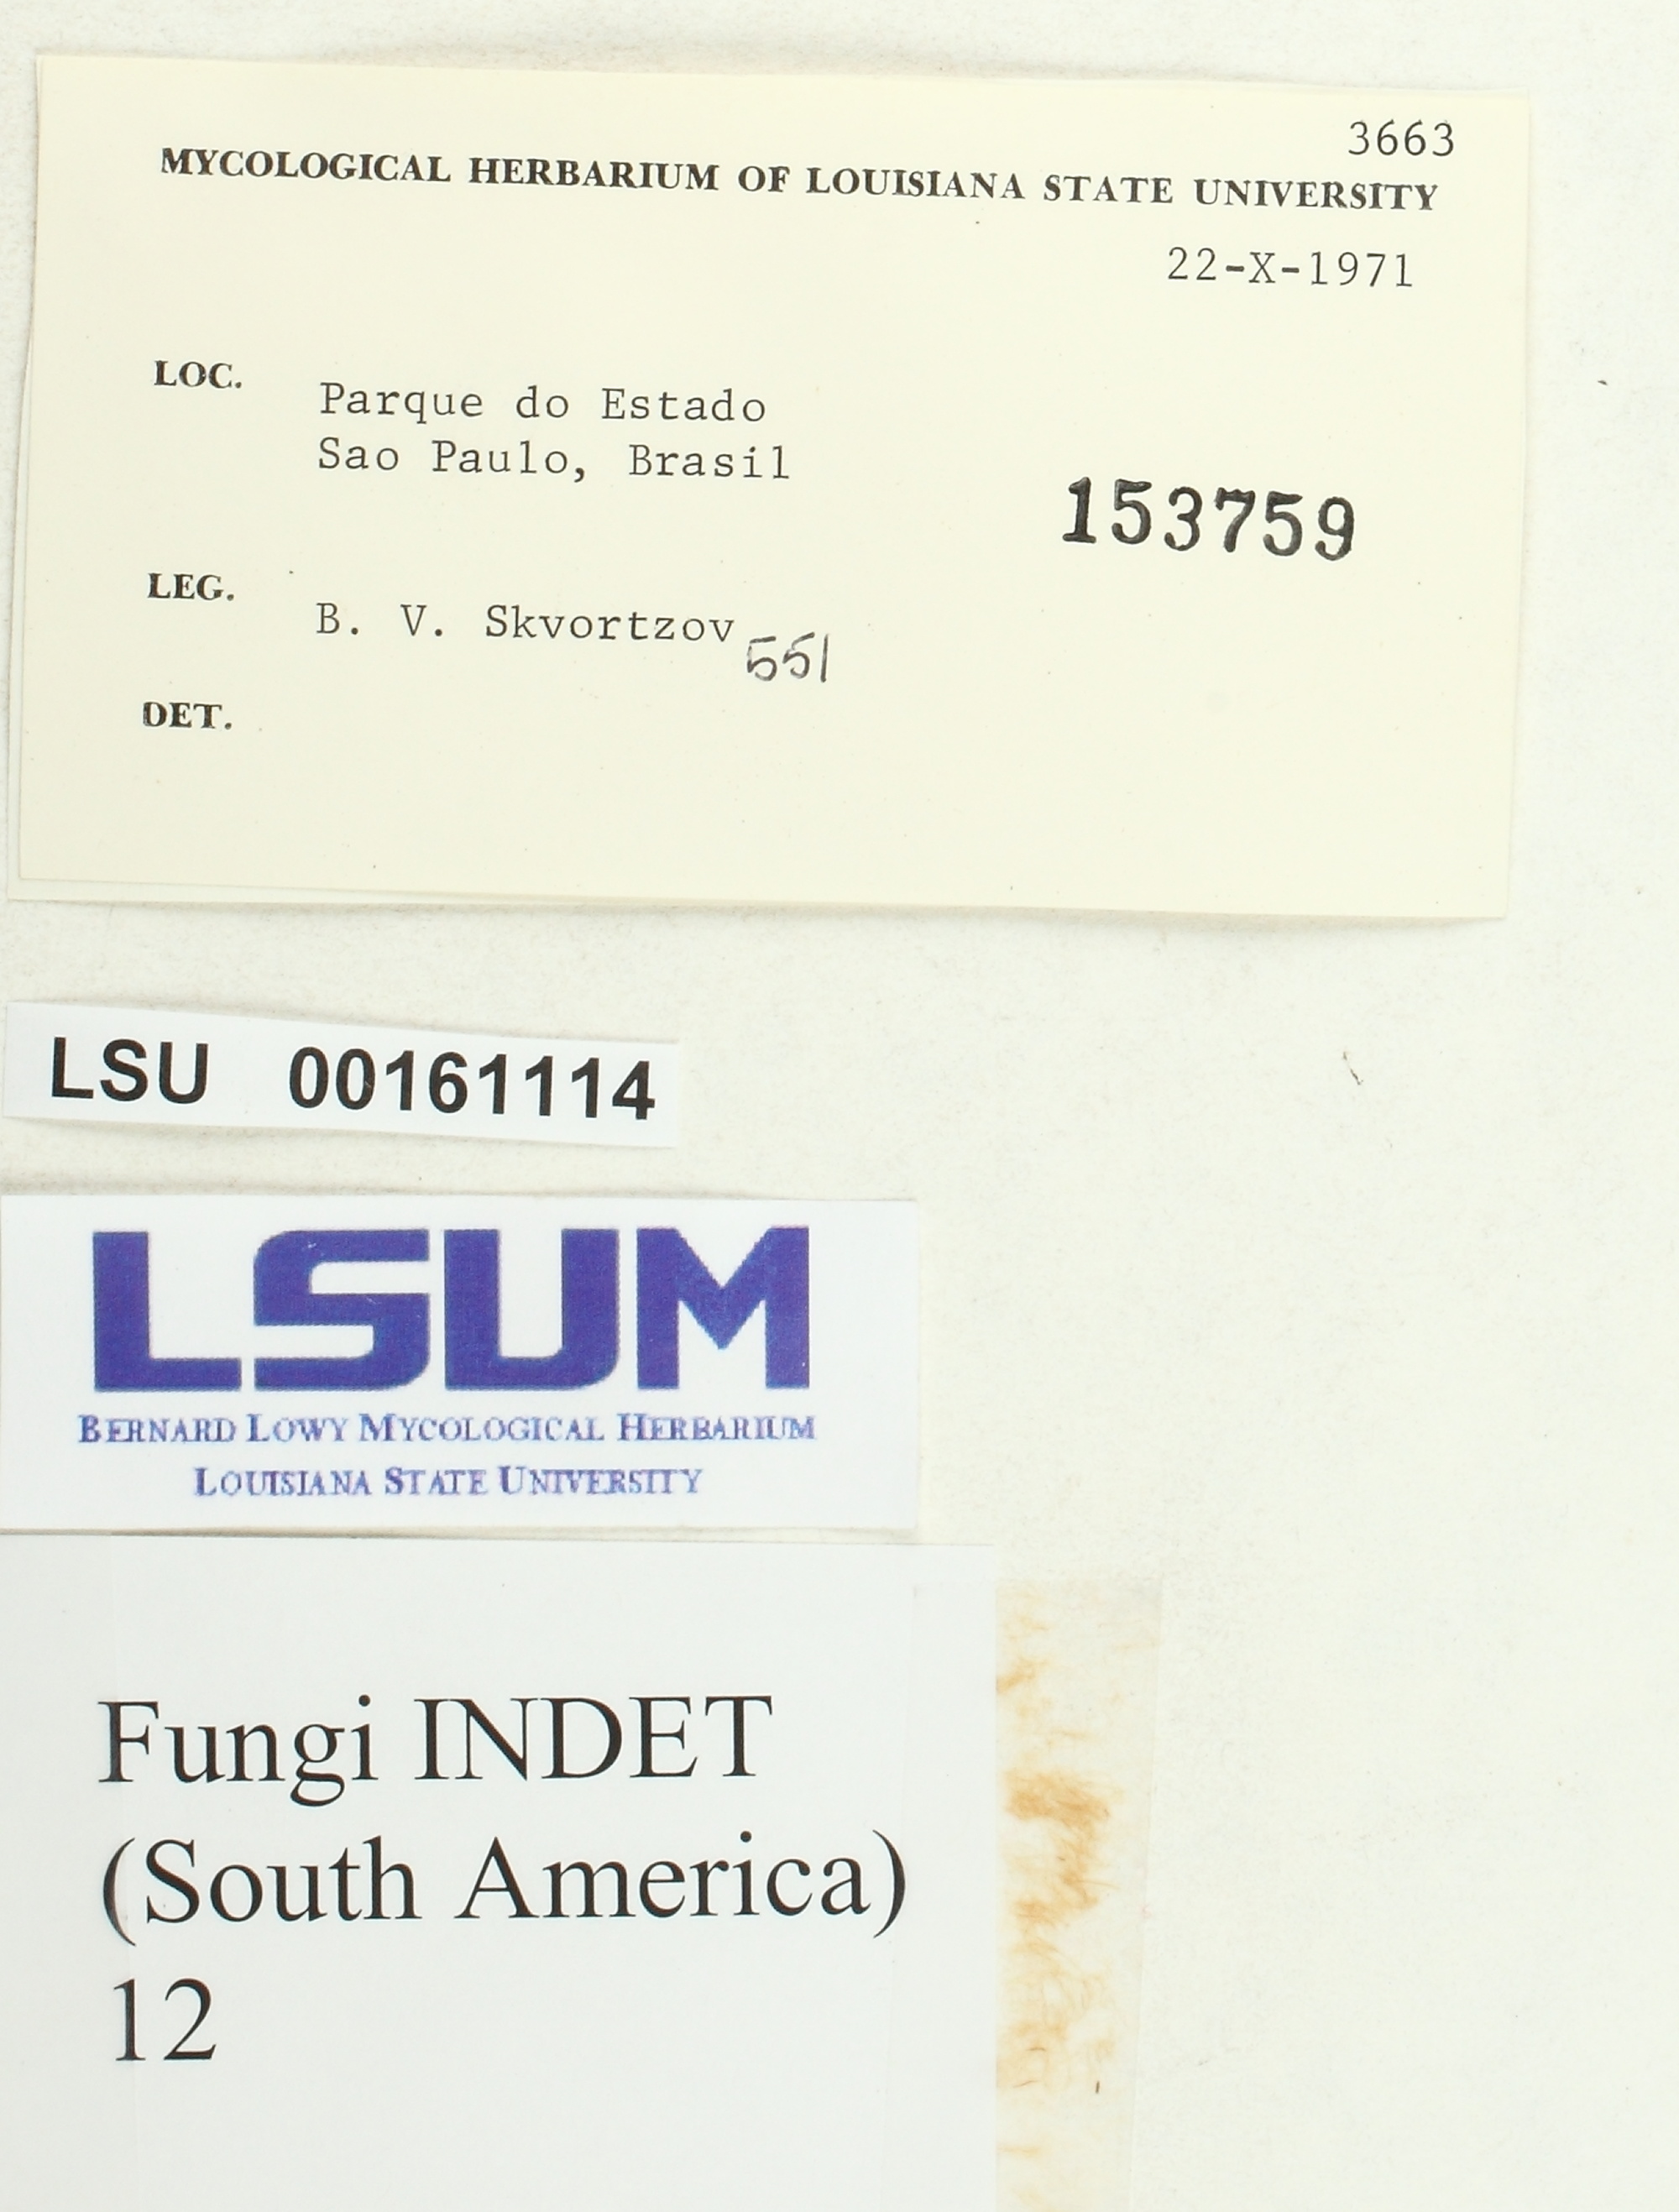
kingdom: Fungi
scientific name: Fungi
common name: Fungi
